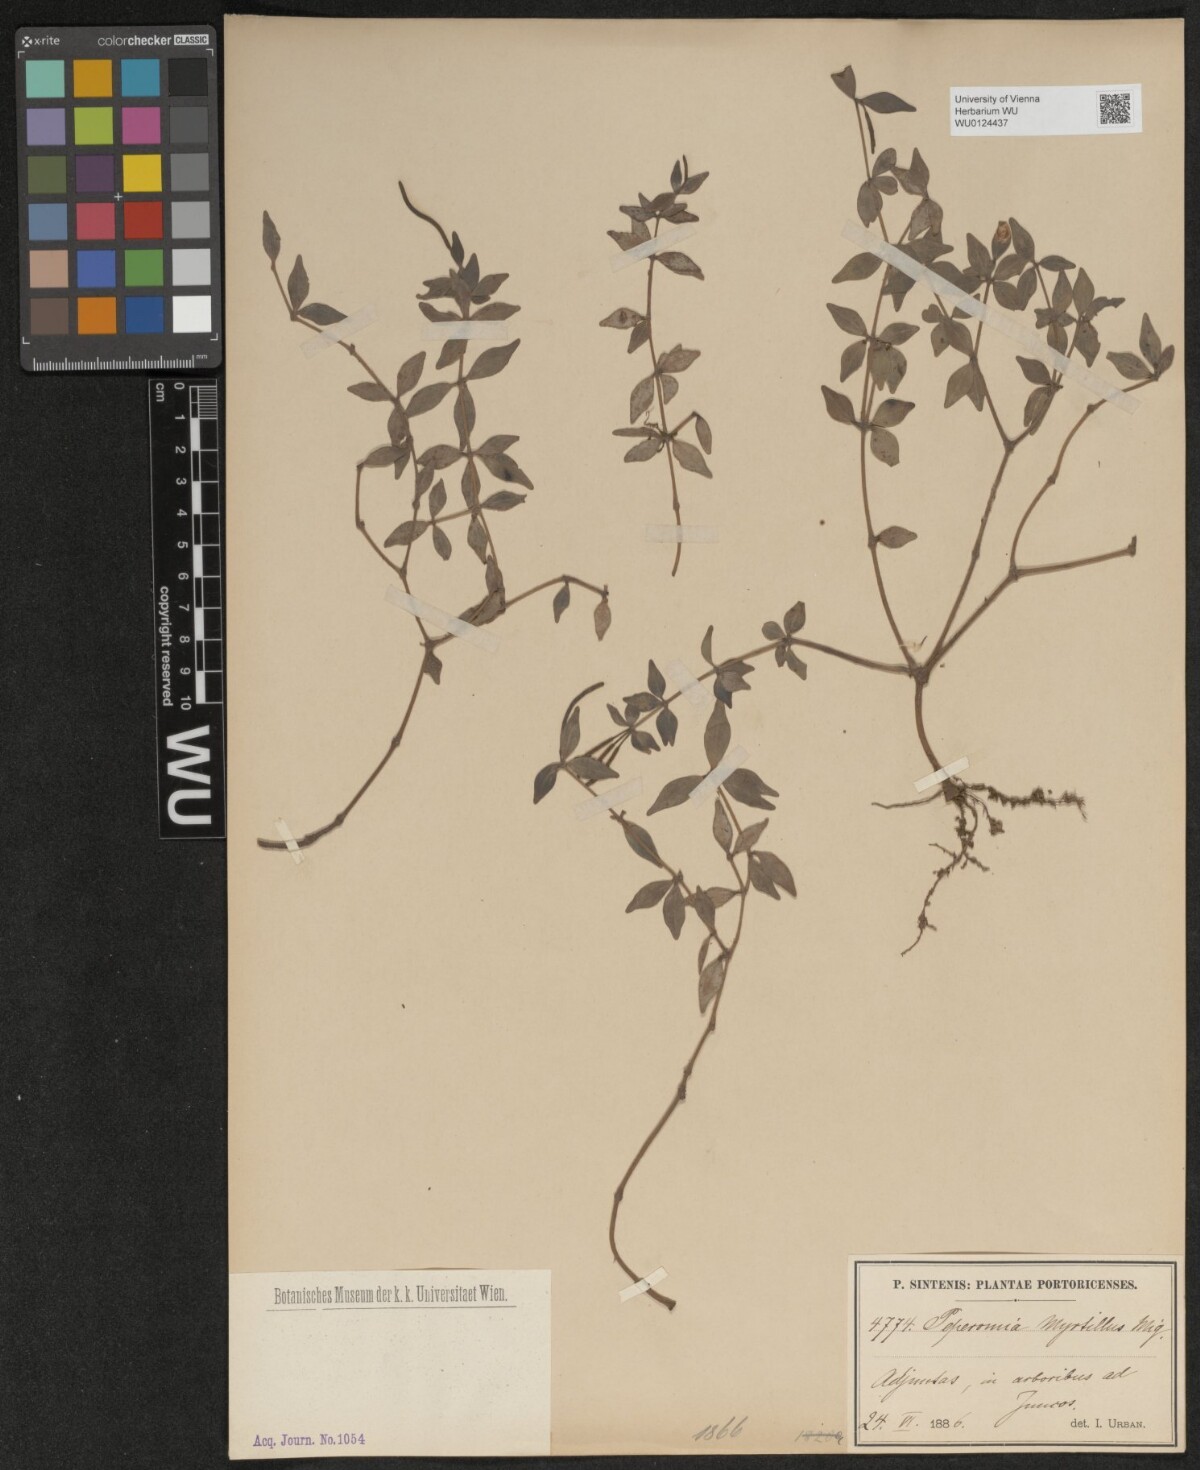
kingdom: Plantae
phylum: Tracheophyta
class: Magnoliopsida
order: Piperales
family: Piperaceae
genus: Peperomia
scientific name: Peperomia rhombea
